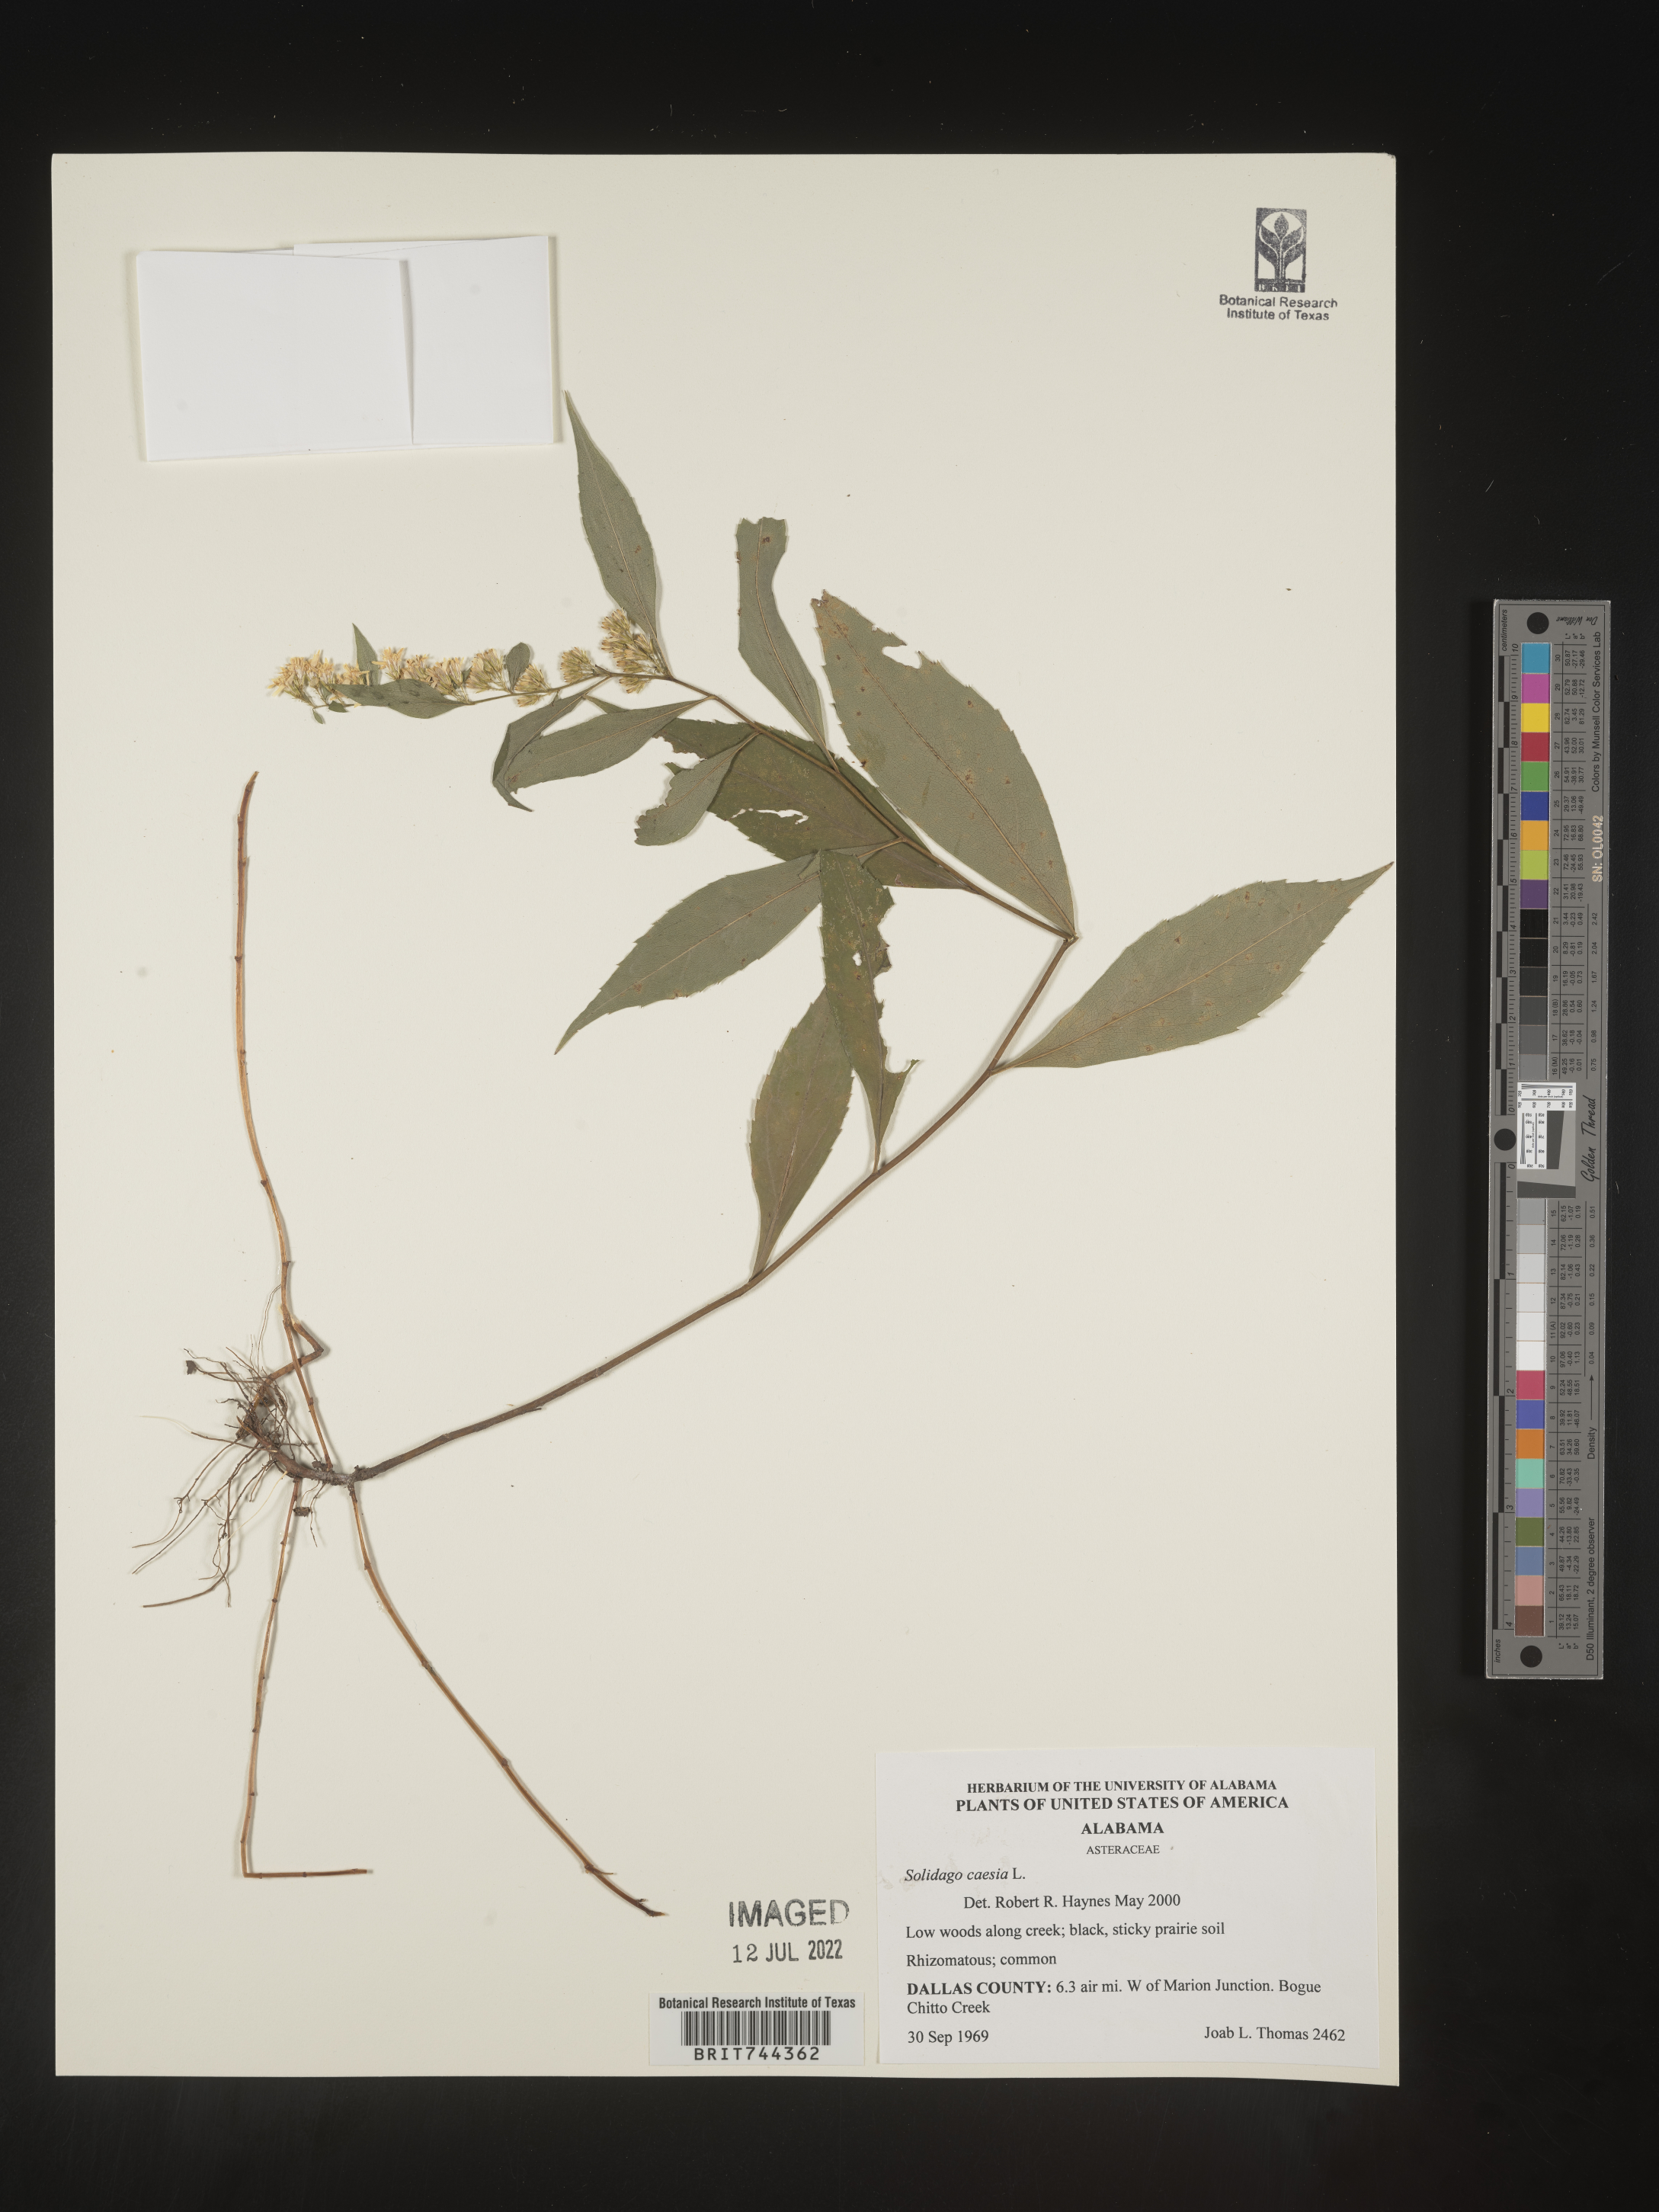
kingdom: Plantae
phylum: Tracheophyta
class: Magnoliopsida
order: Asterales
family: Asteraceae
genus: Solidago
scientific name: Solidago caesia
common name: Woodland goldenrod
